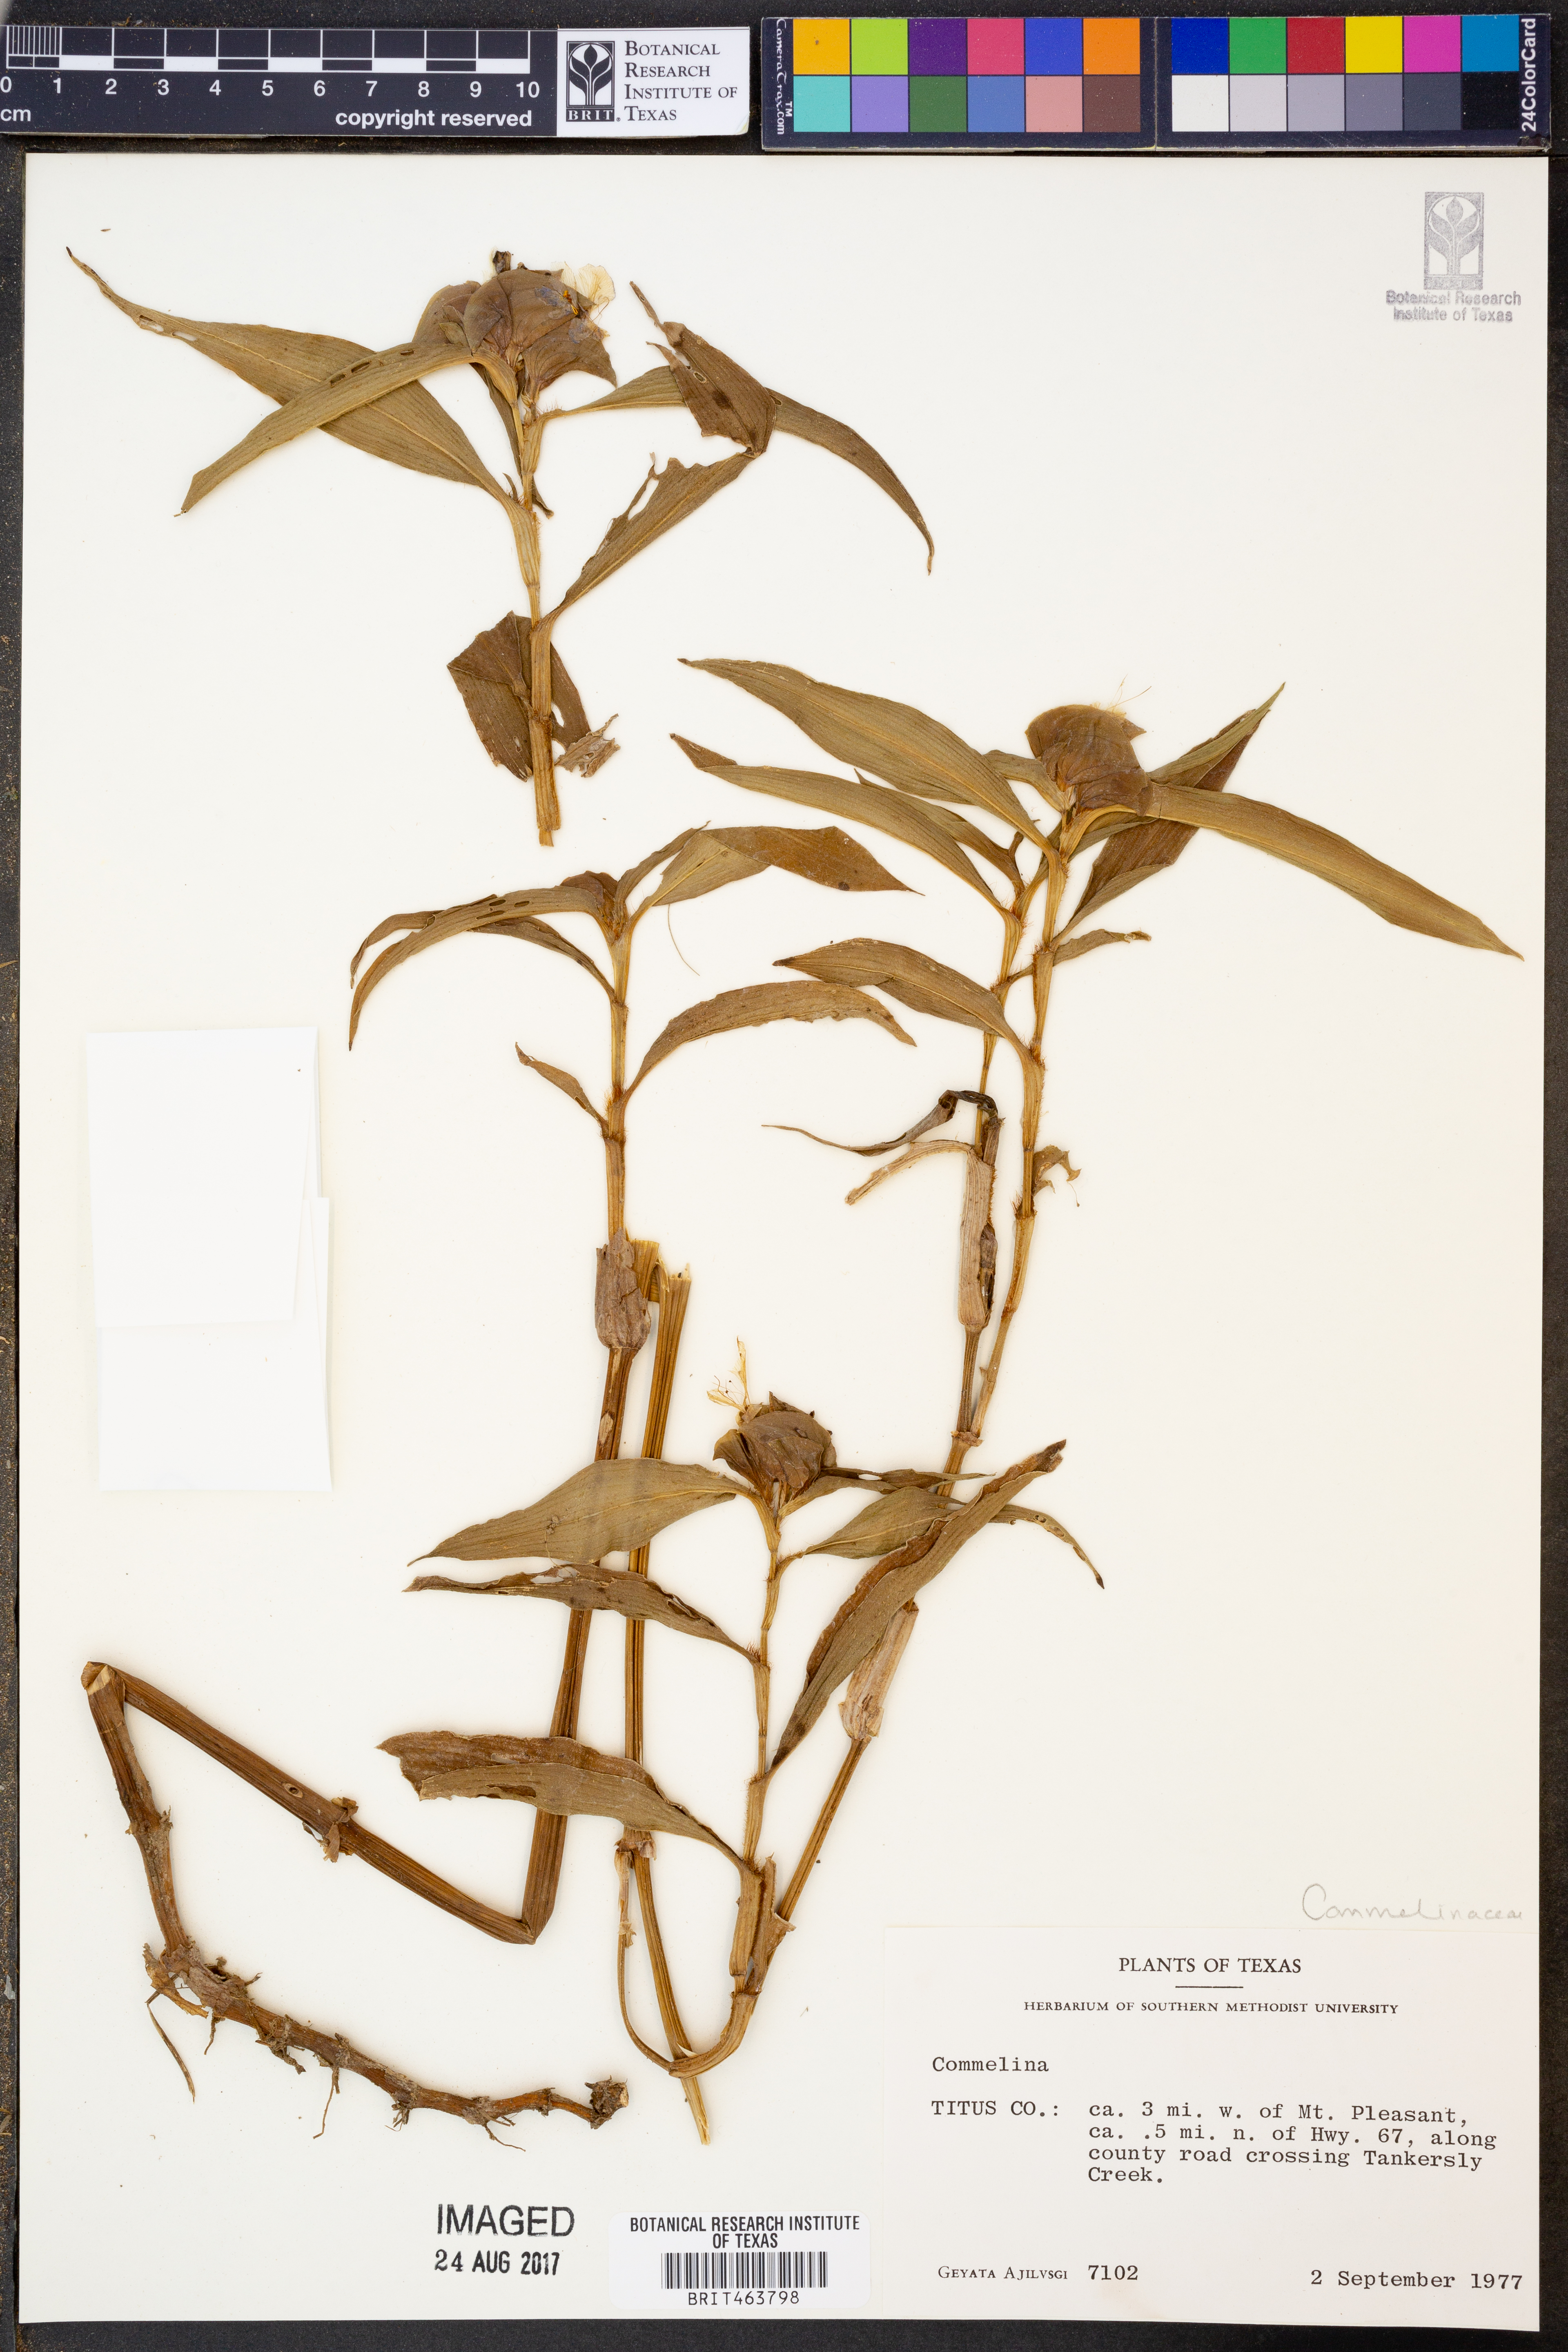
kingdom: Plantae
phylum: Tracheophyta
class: Liliopsida
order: Commelinales
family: Commelinaceae
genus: Commelina
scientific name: Commelina
